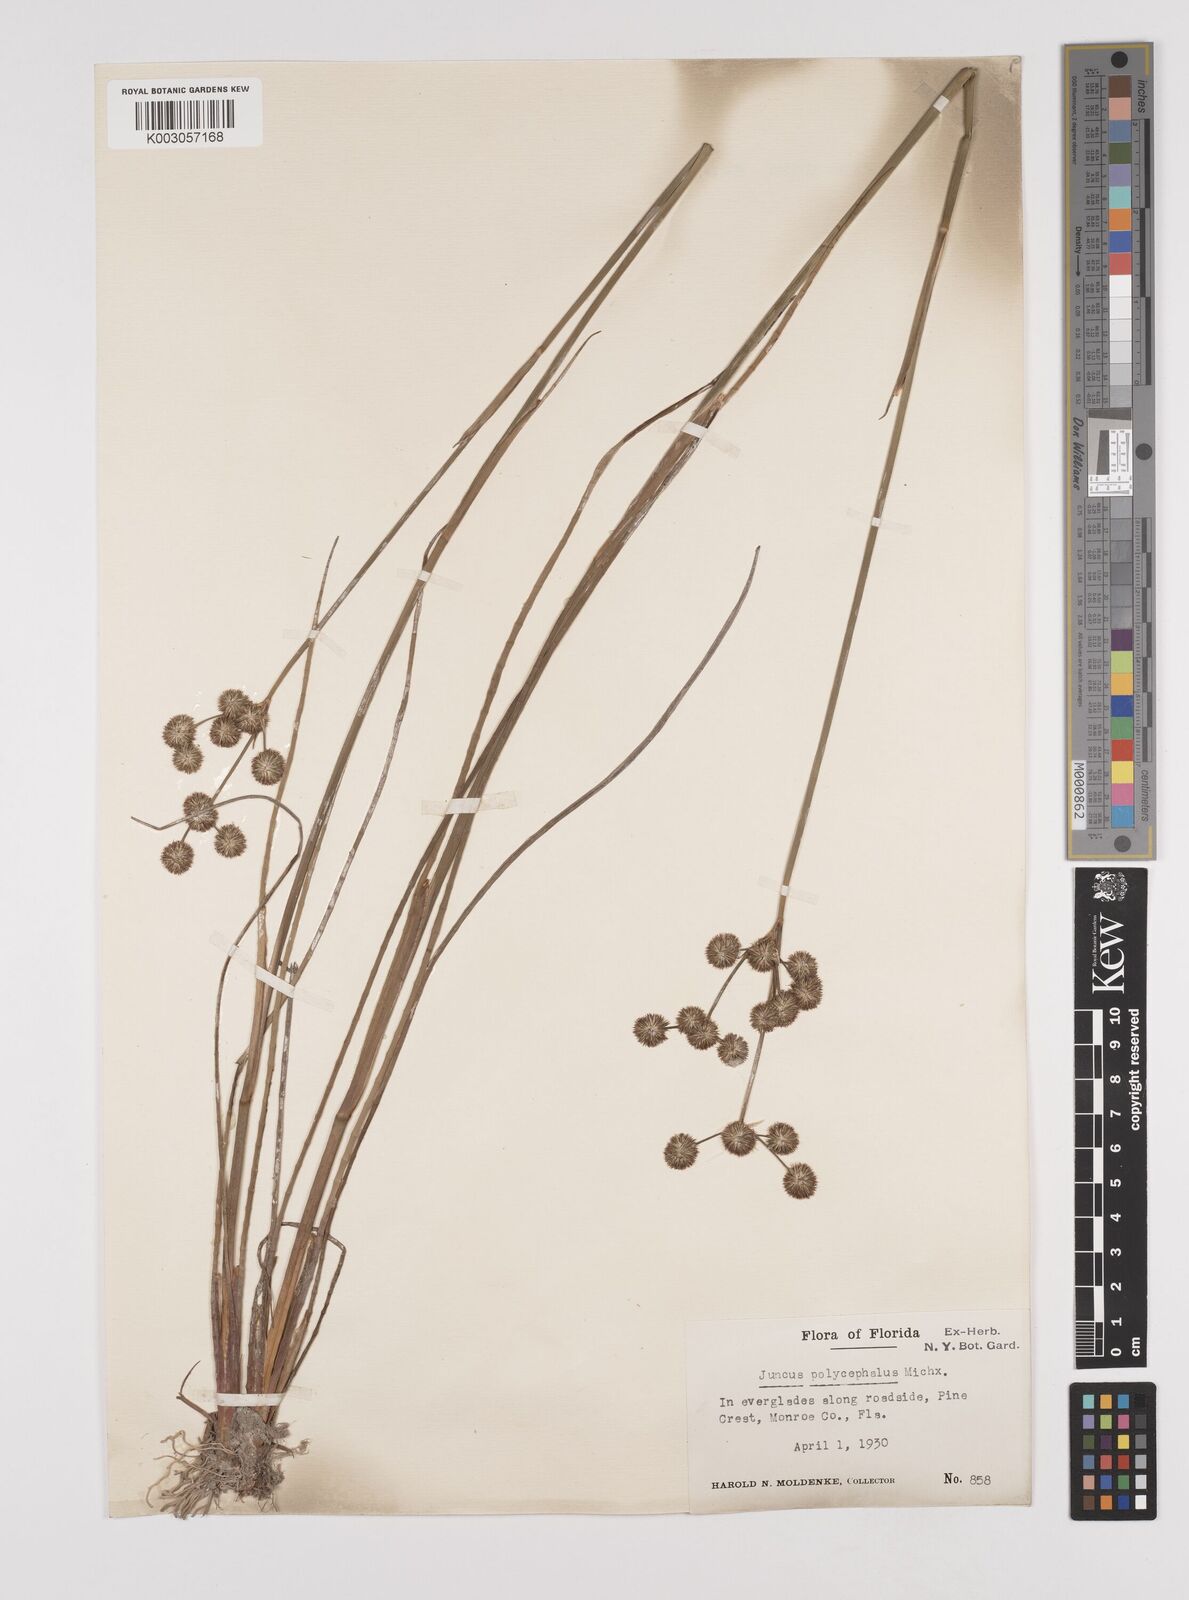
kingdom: Plantae
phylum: Tracheophyta
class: Liliopsida
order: Poales
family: Juncaceae
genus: Juncus
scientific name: Juncus articulatus
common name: Jointed rush
